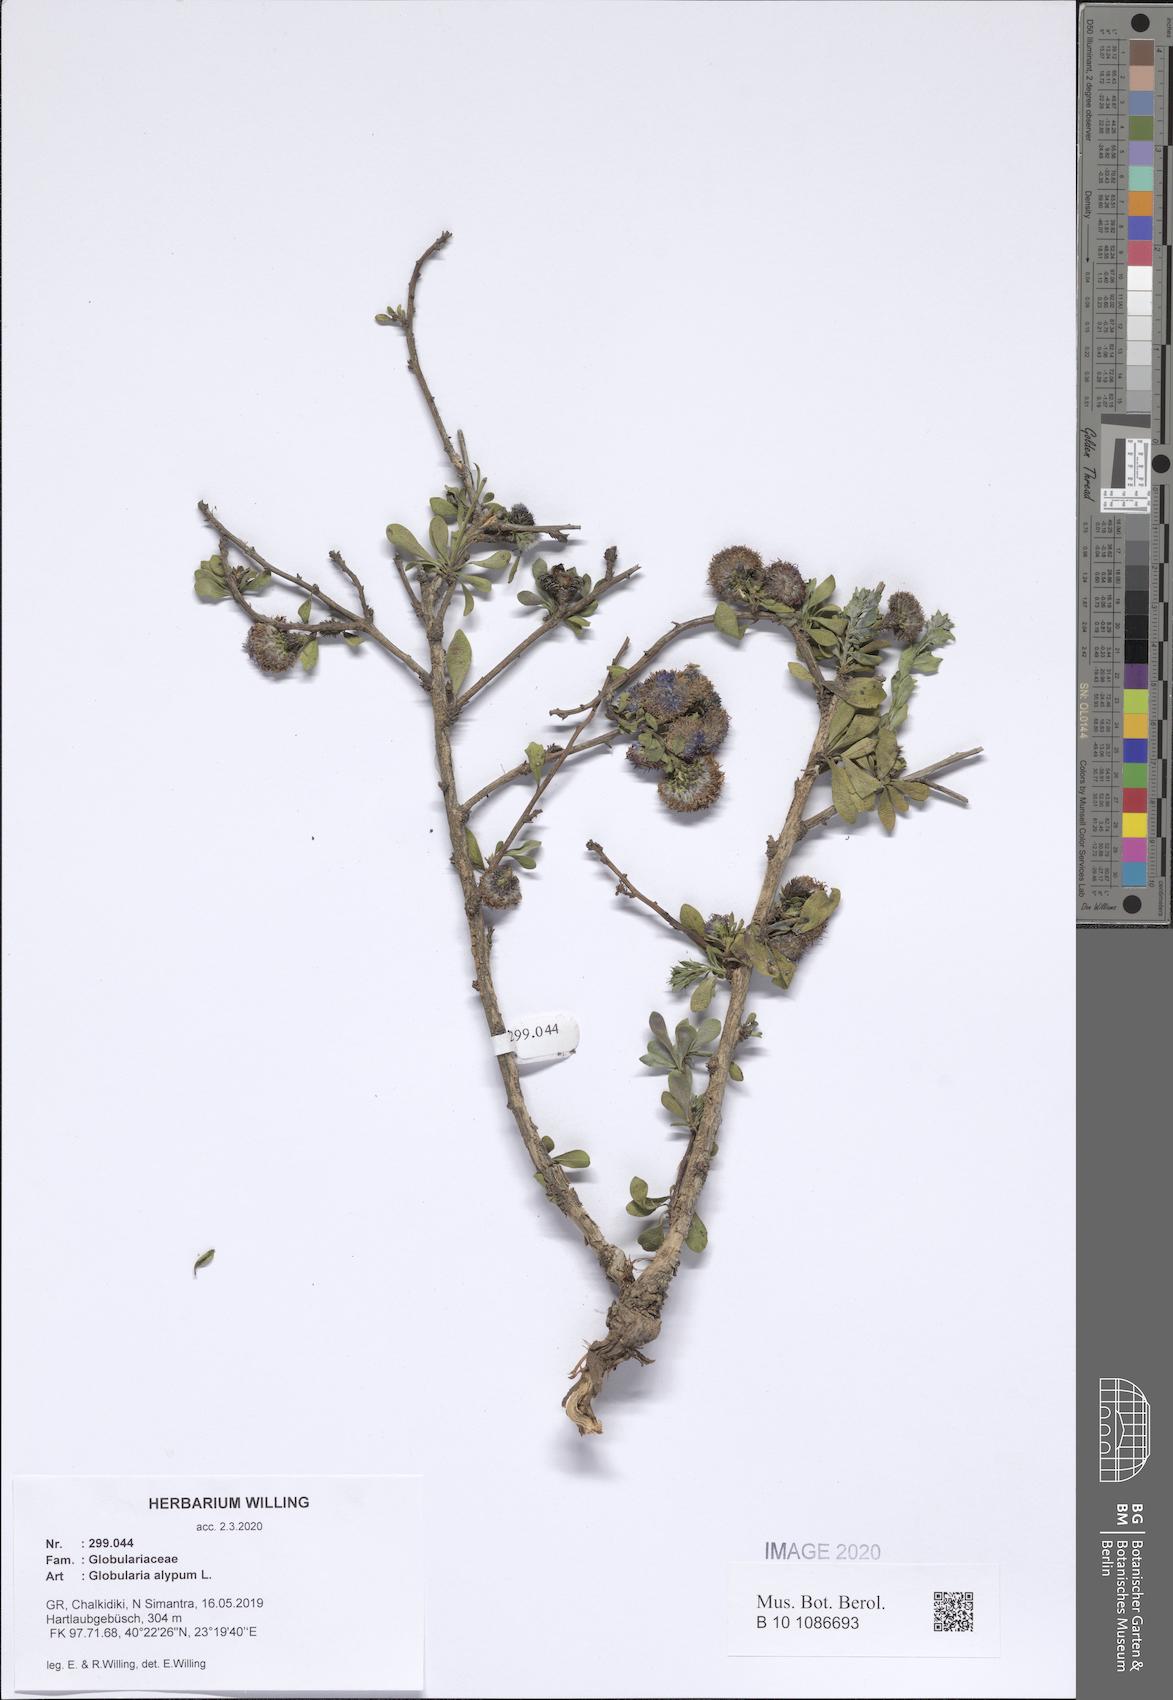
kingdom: Plantae
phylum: Tracheophyta
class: Magnoliopsida
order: Lamiales
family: Plantaginaceae
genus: Globularia
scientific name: Globularia alypum
